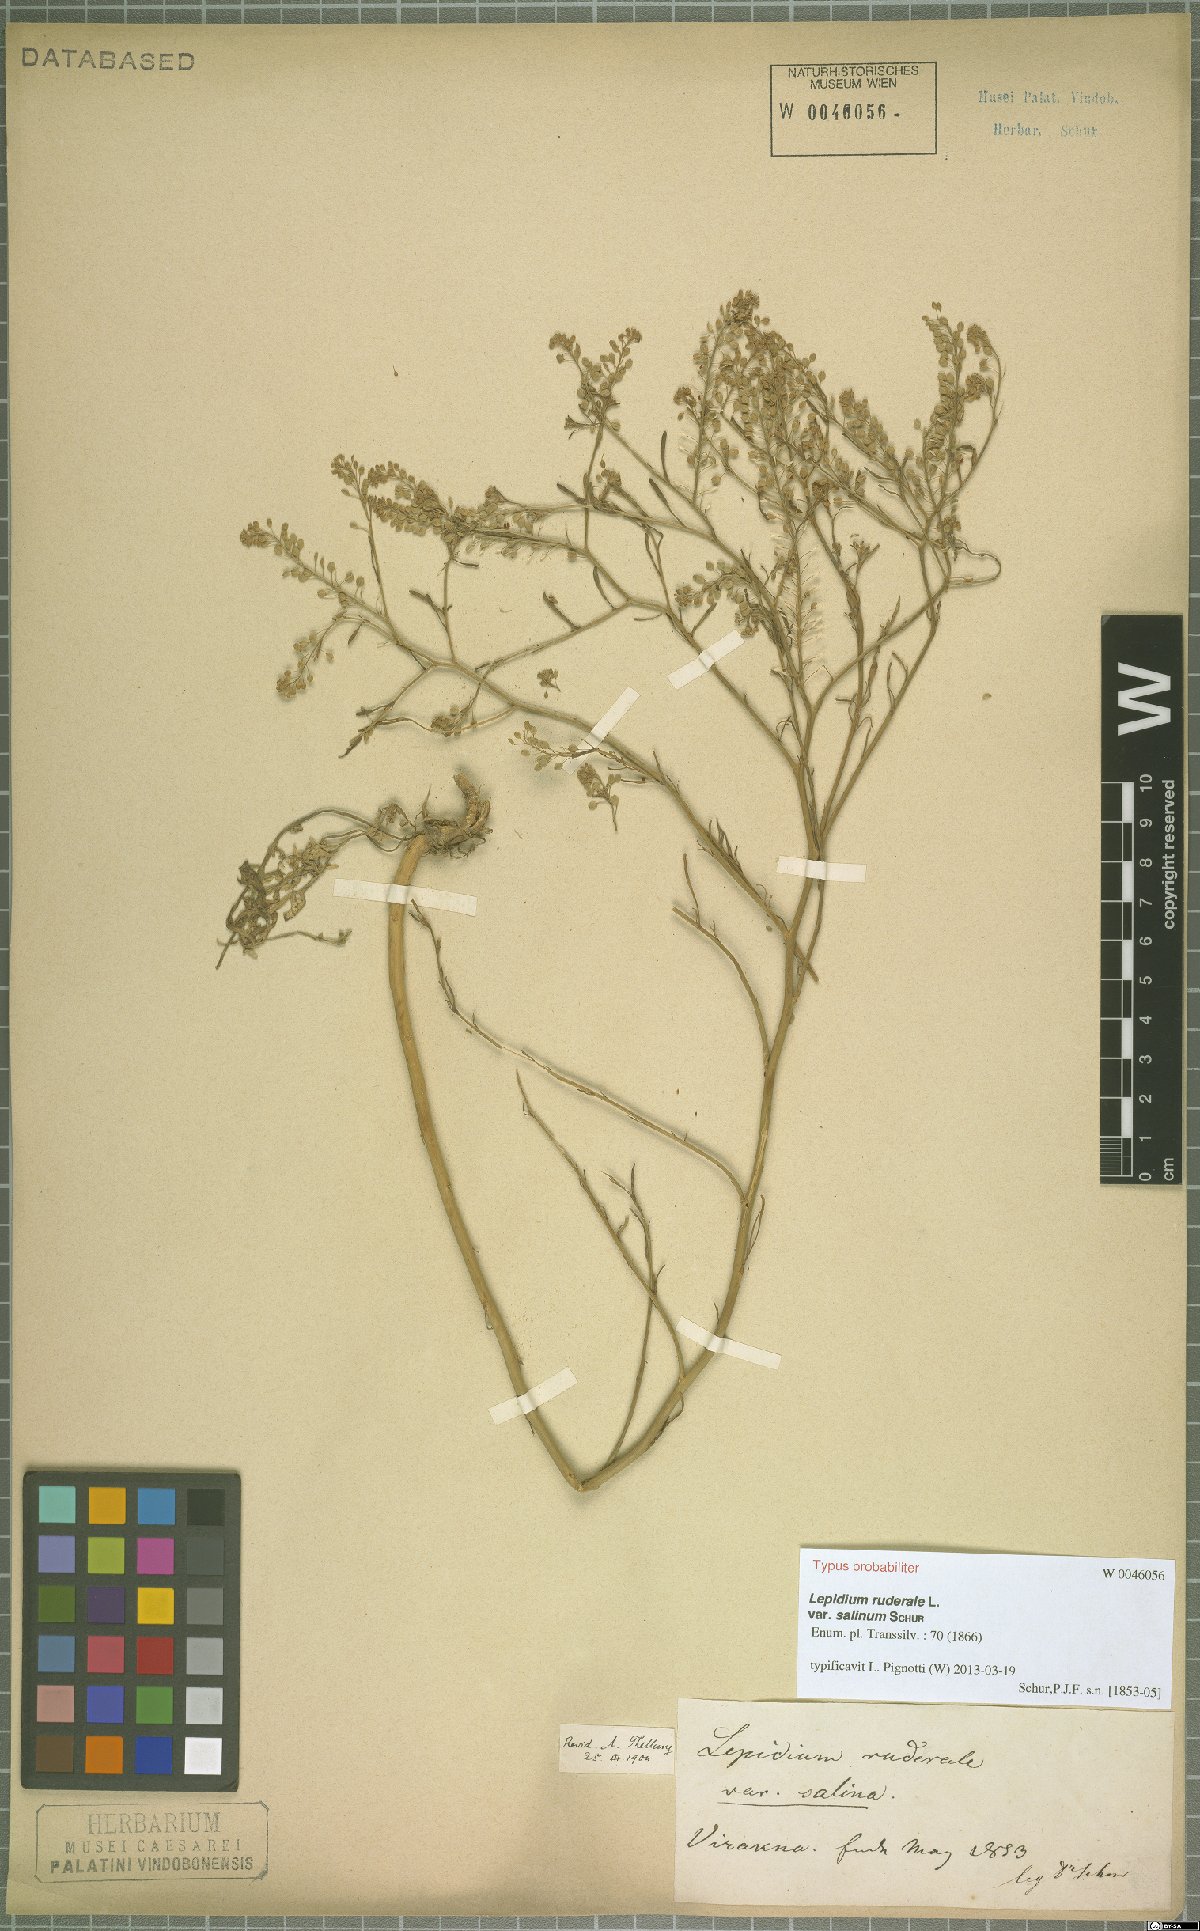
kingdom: Plantae
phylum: Tracheophyta
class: Magnoliopsida
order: Brassicales
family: Brassicaceae
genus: Lepidium
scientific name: Lepidium ruderale
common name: Narrow-leaved pepperwort
